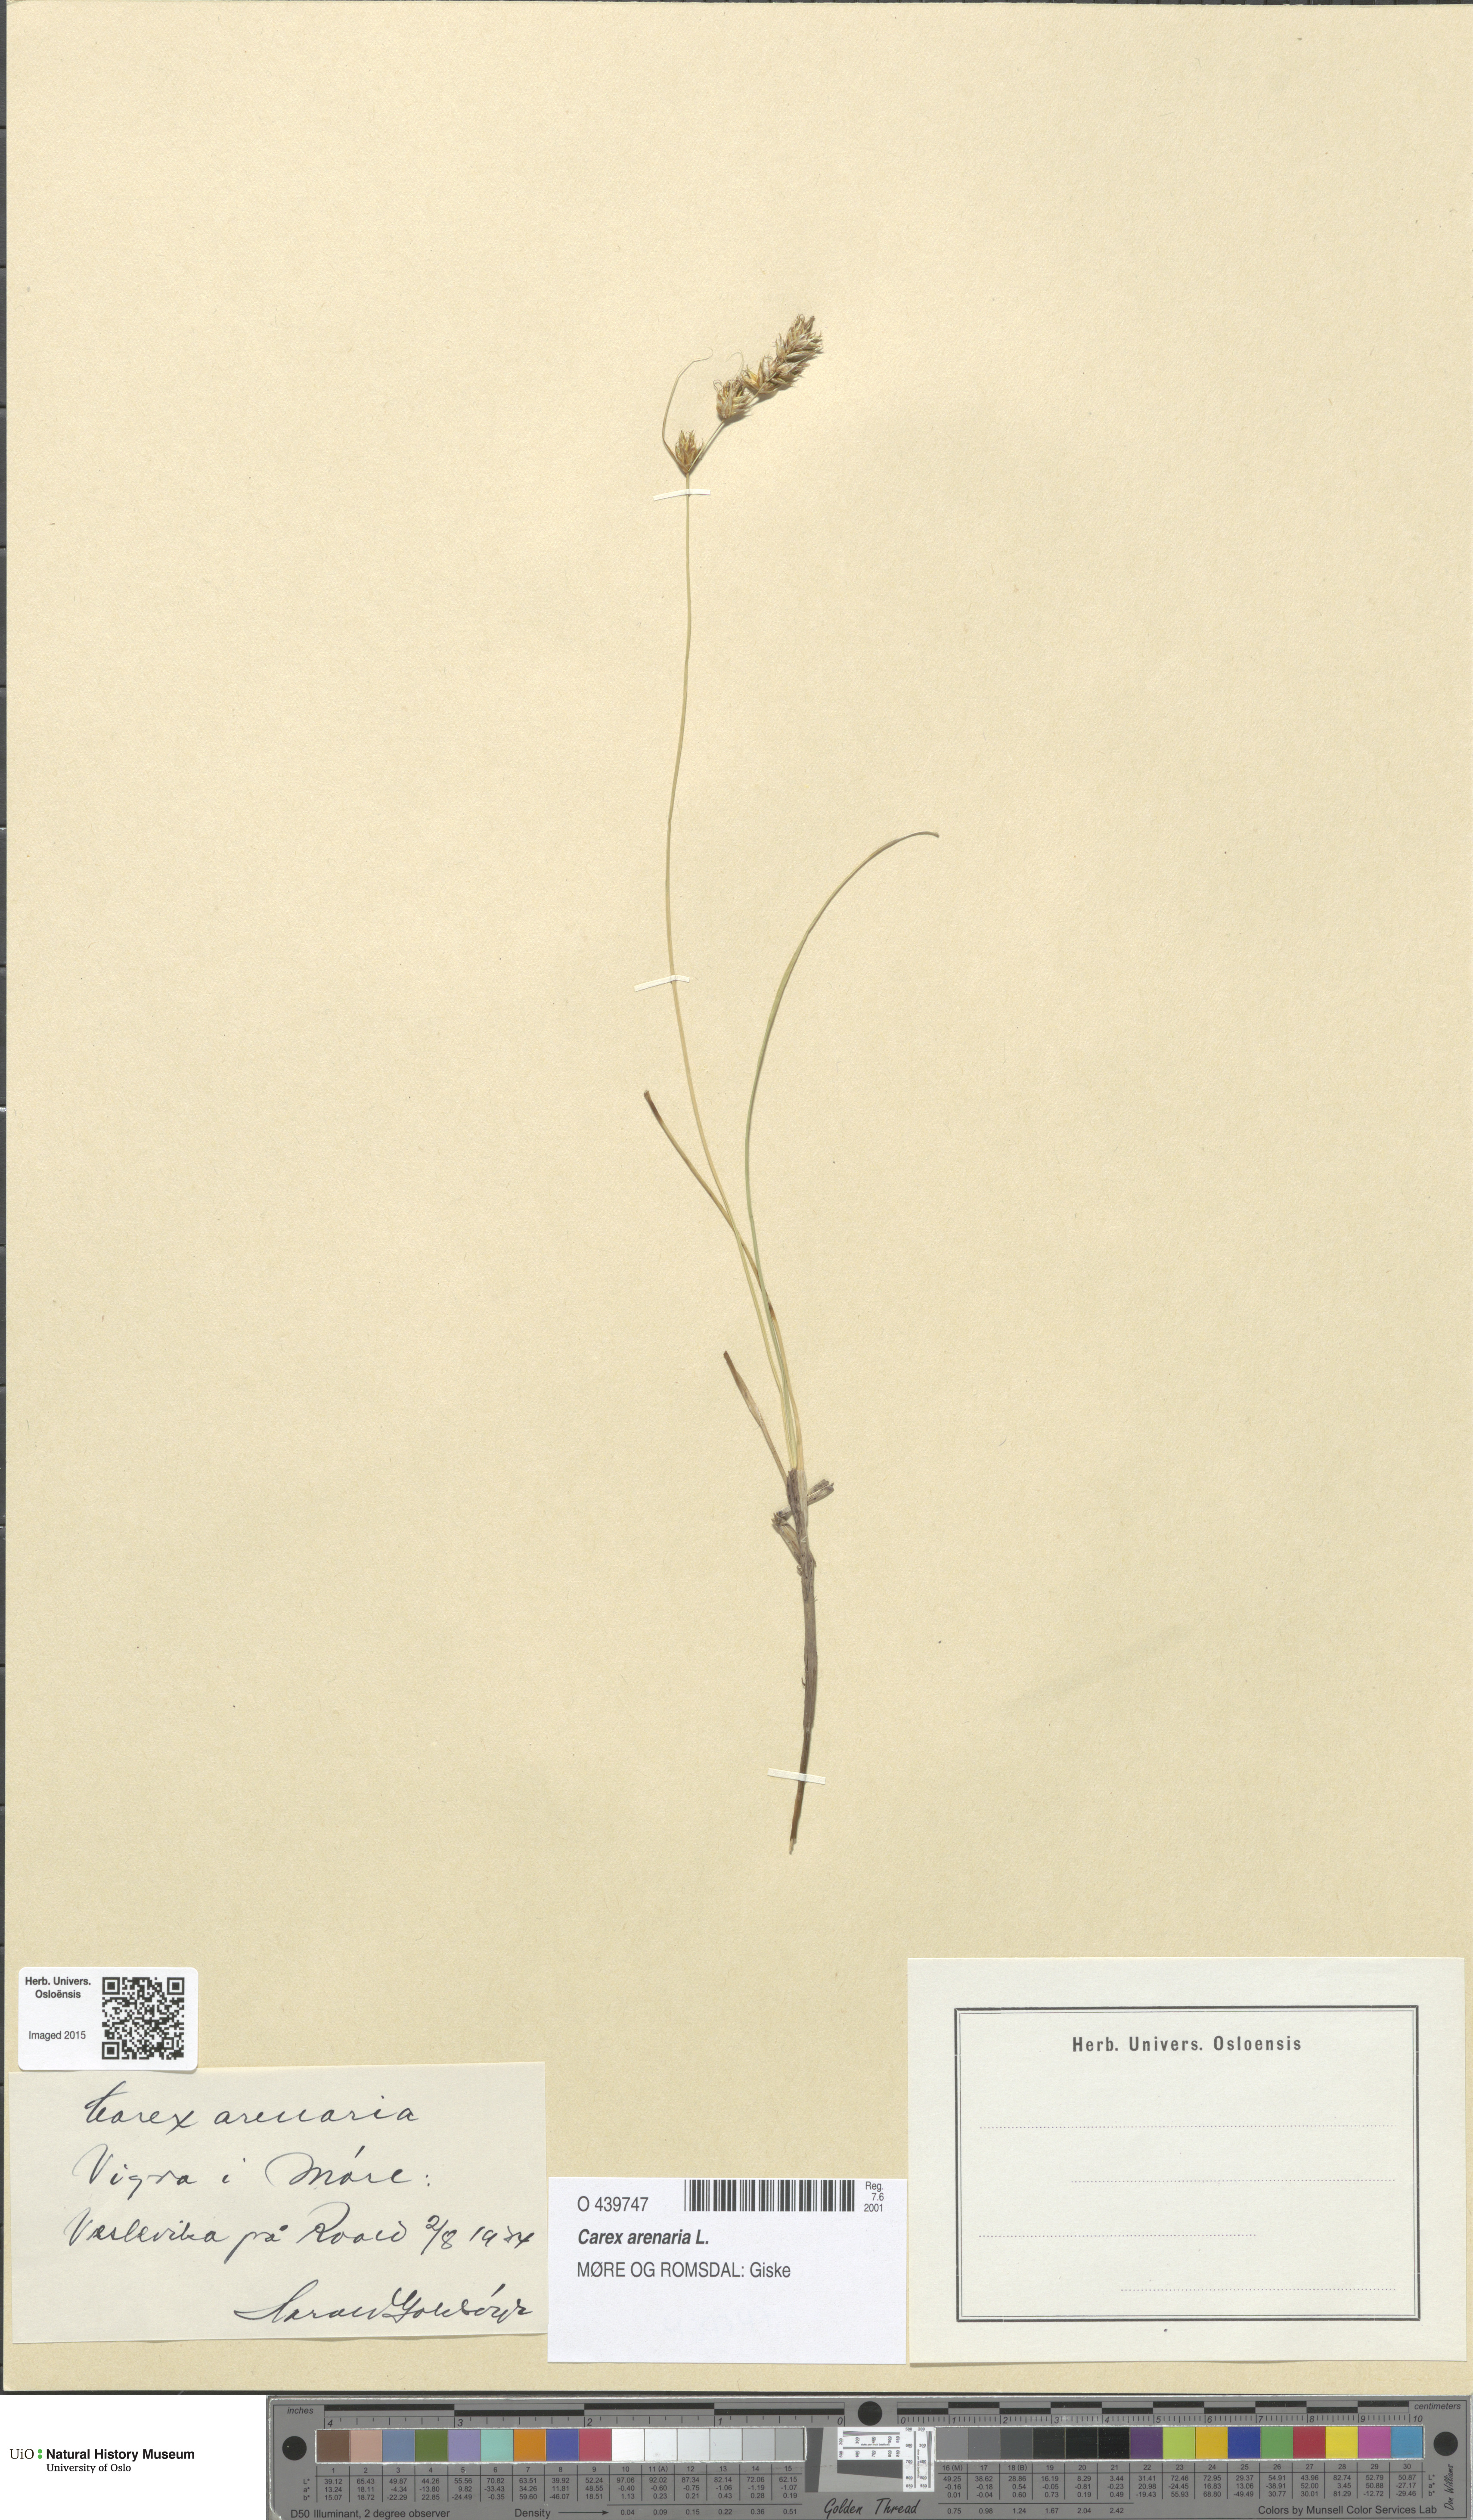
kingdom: Plantae
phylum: Tracheophyta
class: Liliopsida
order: Poales
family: Cyperaceae
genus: Carex
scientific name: Carex arenaria
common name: Sand sedge
